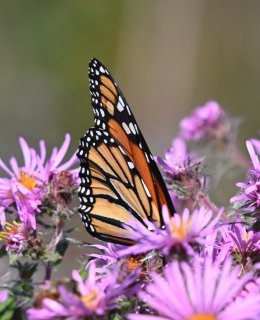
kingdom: Animalia
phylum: Arthropoda
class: Insecta
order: Lepidoptera
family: Nymphalidae
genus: Danaus
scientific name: Danaus plexippus
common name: Monarch
